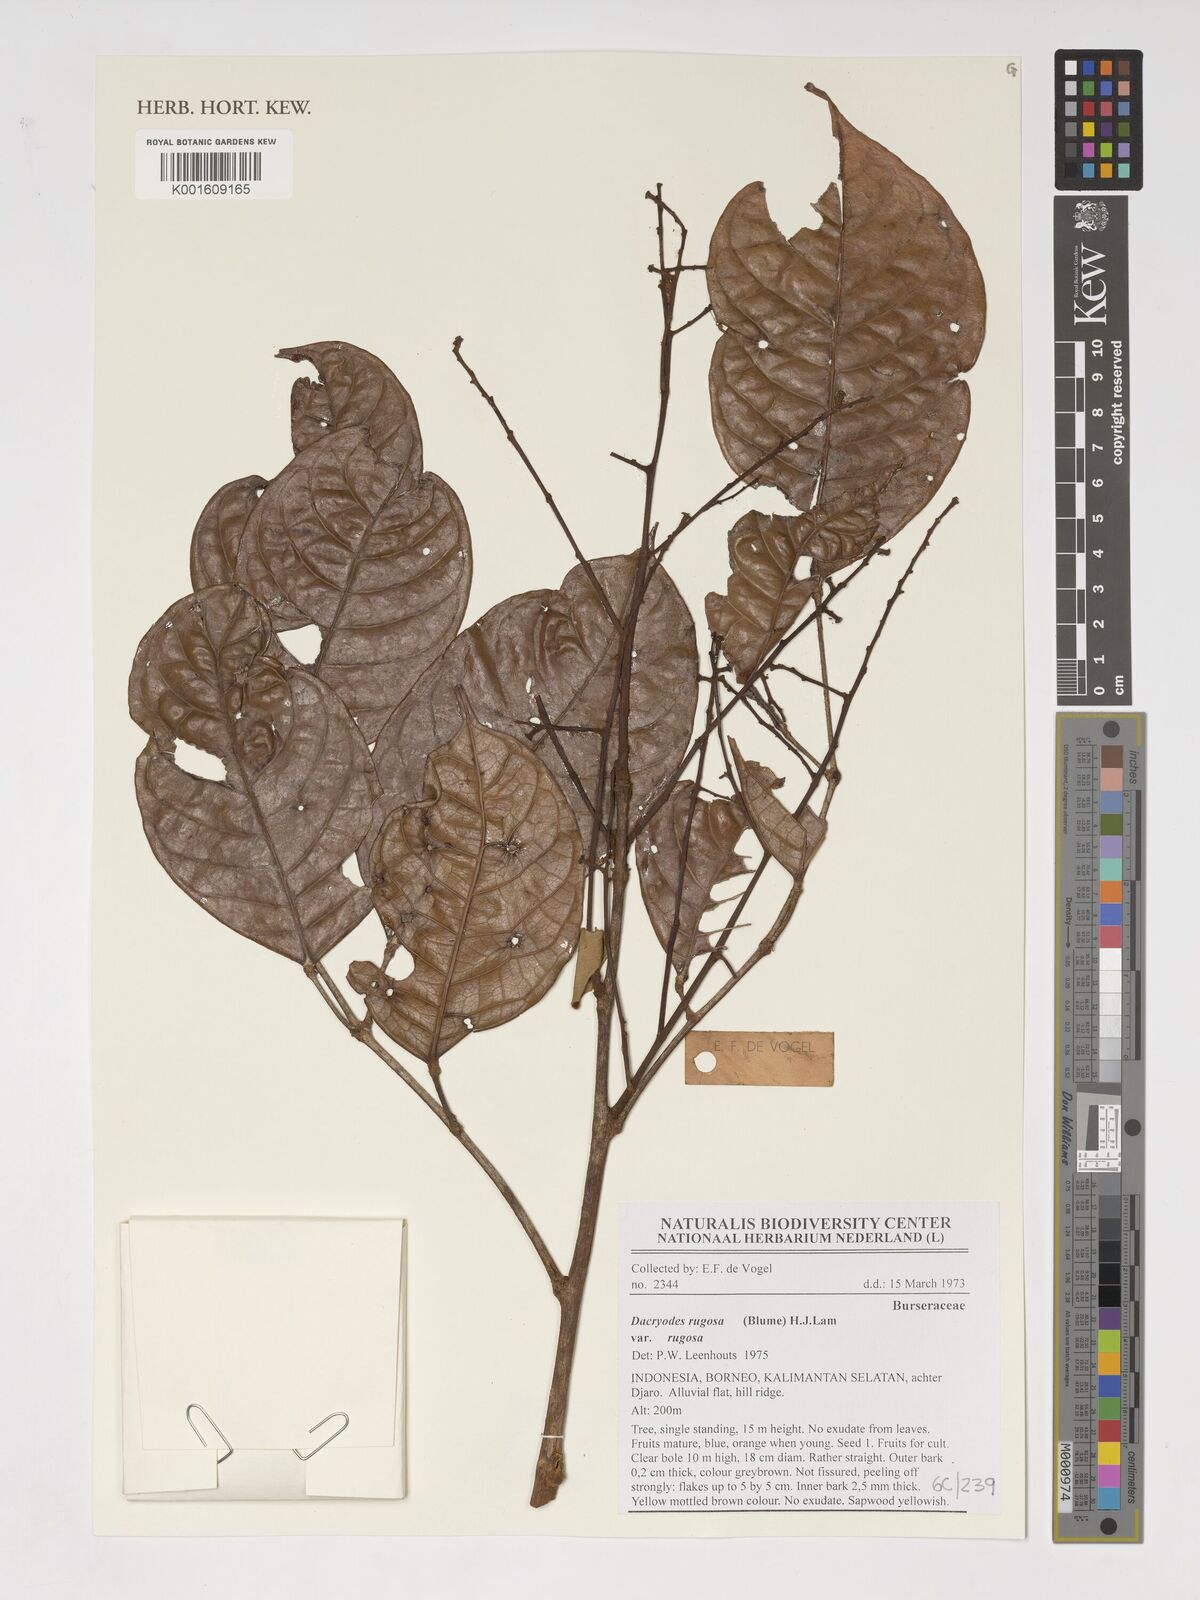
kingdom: Plantae
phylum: Tracheophyta
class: Magnoliopsida
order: Sapindales
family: Burseraceae
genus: Dacryodes
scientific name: Dacryodes rugosa
